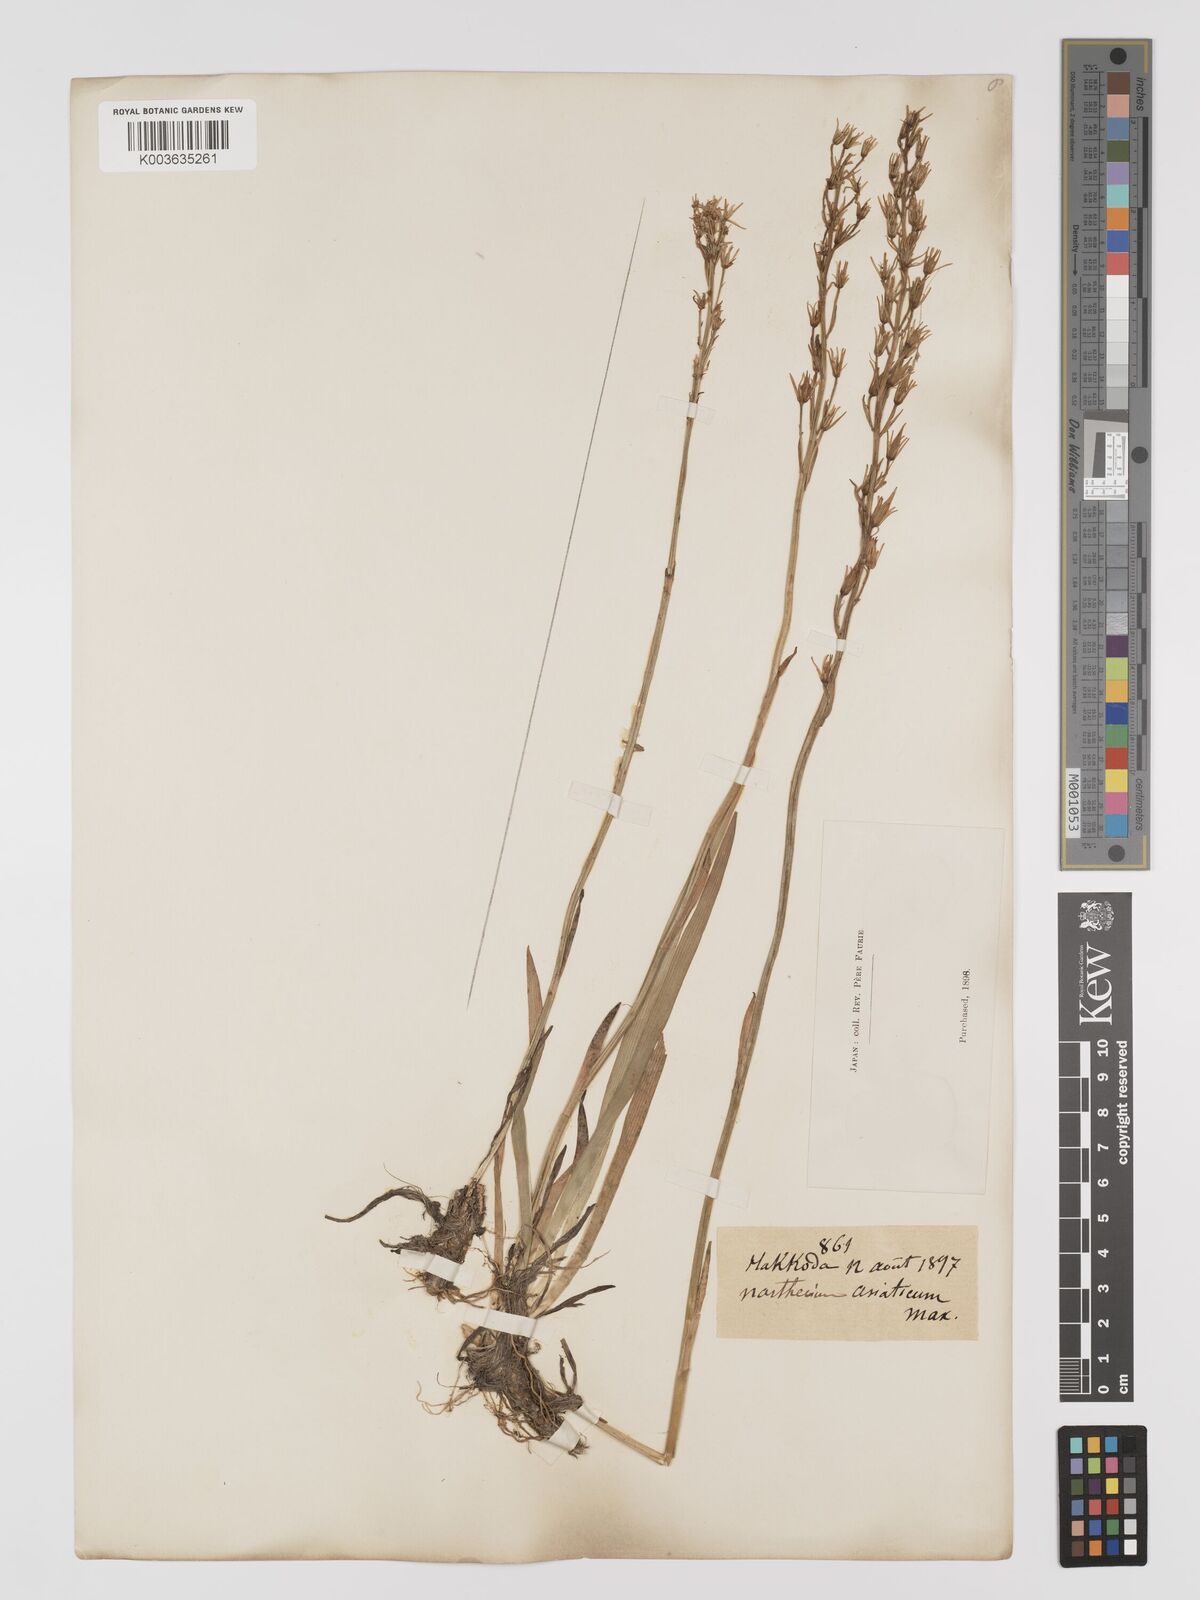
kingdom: Plantae
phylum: Tracheophyta
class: Liliopsida
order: Dioscoreales
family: Nartheciaceae
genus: Narthecium
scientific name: Narthecium asiaticum
